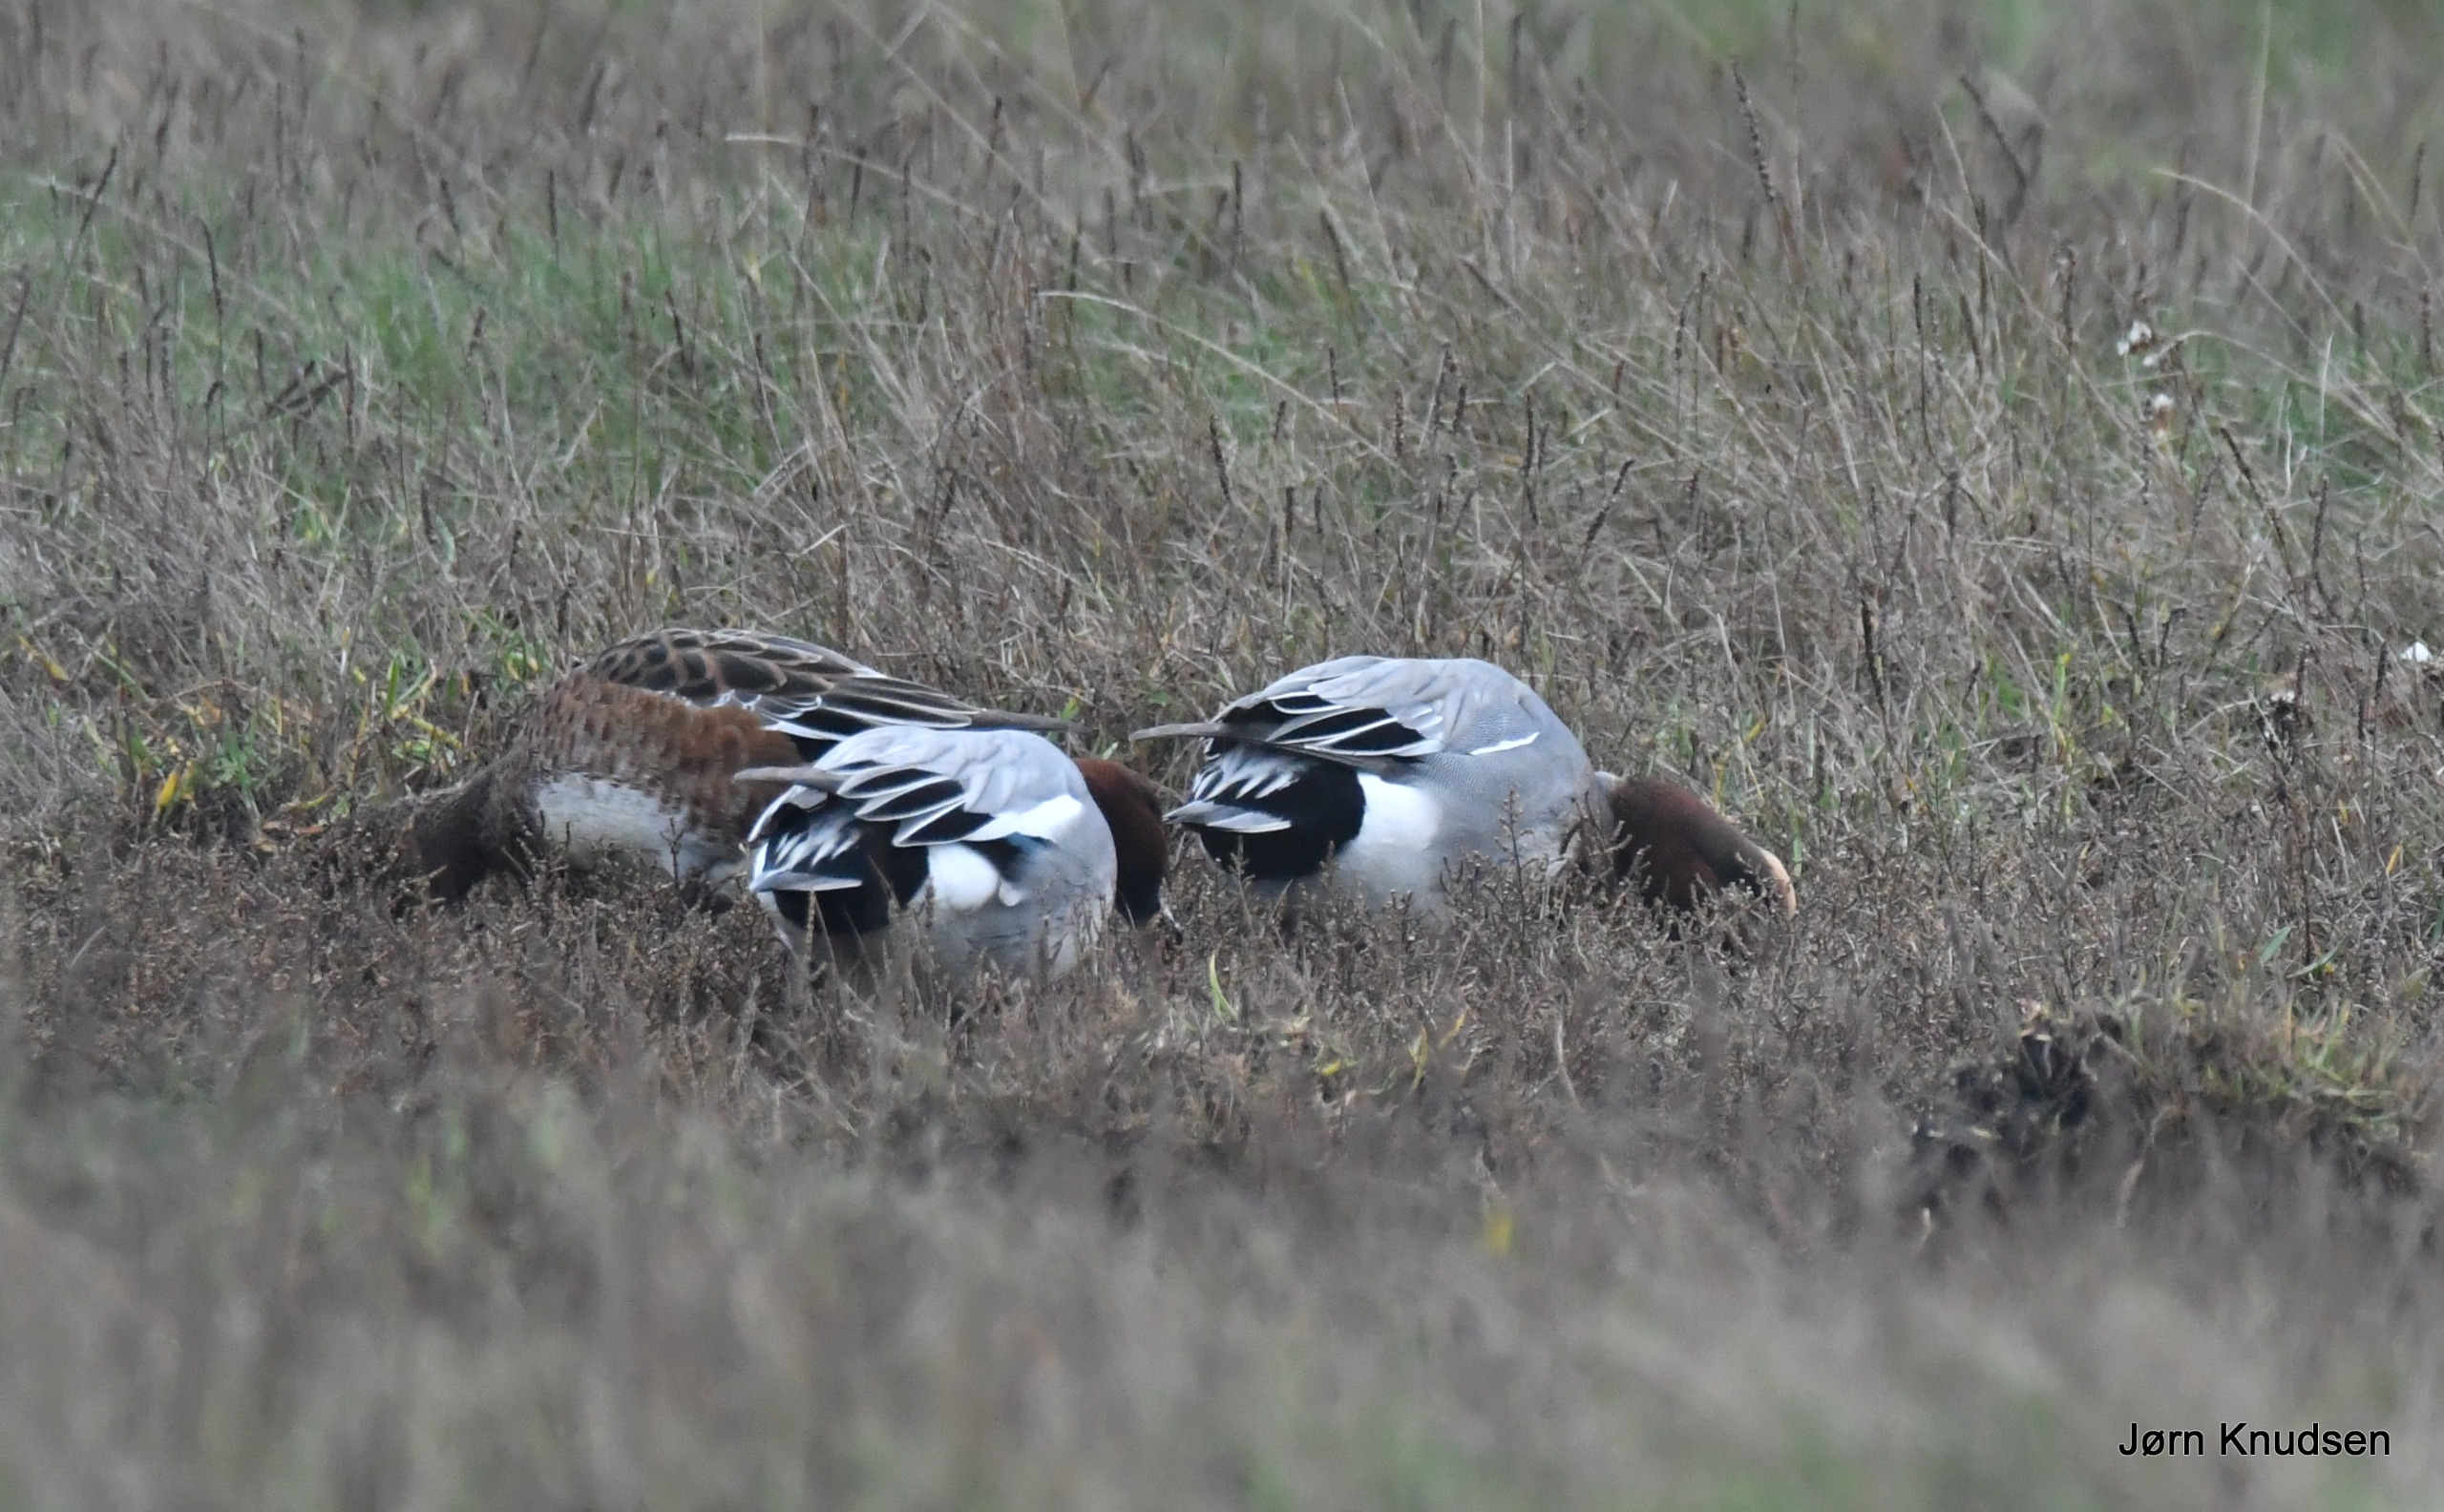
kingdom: Animalia
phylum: Chordata
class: Aves
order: Anseriformes
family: Anatidae
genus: Mareca
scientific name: Mareca penelope
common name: Pibeand
